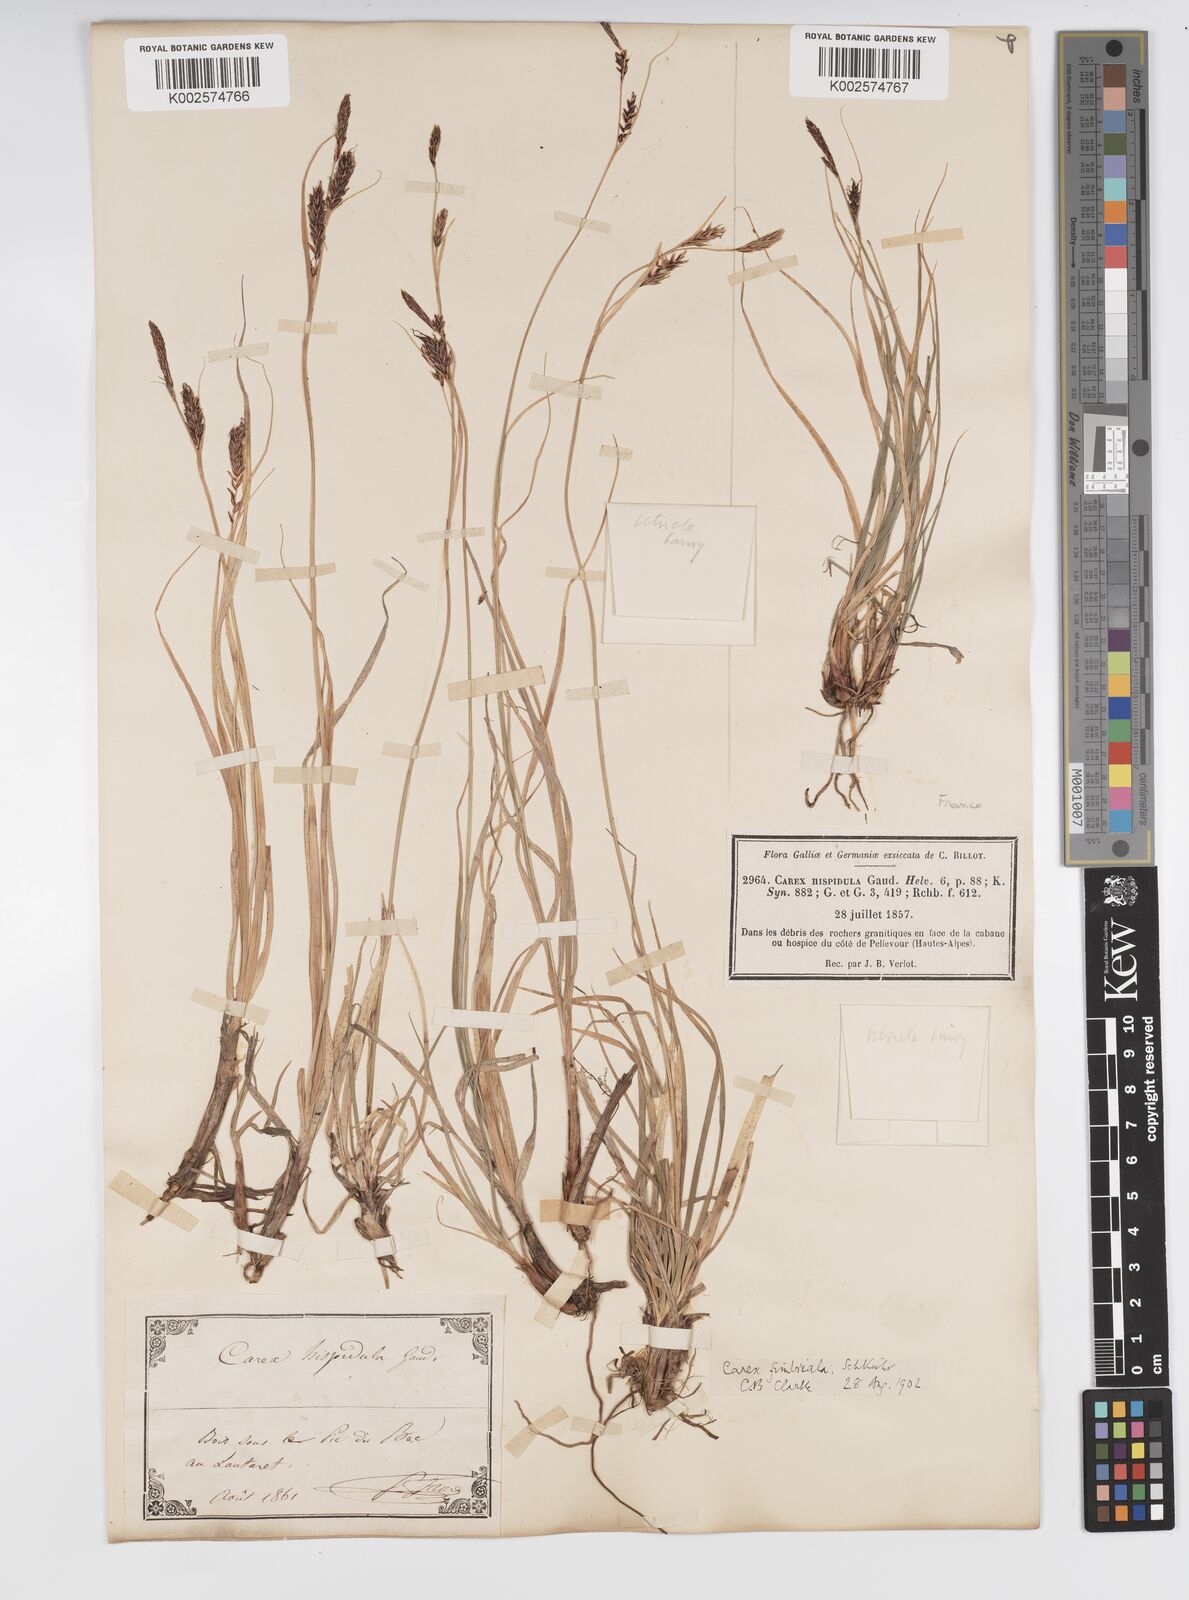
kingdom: Plantae
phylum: Tracheophyta
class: Liliopsida
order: Poales
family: Cyperaceae
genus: Carex
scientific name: Carex fimbriata
